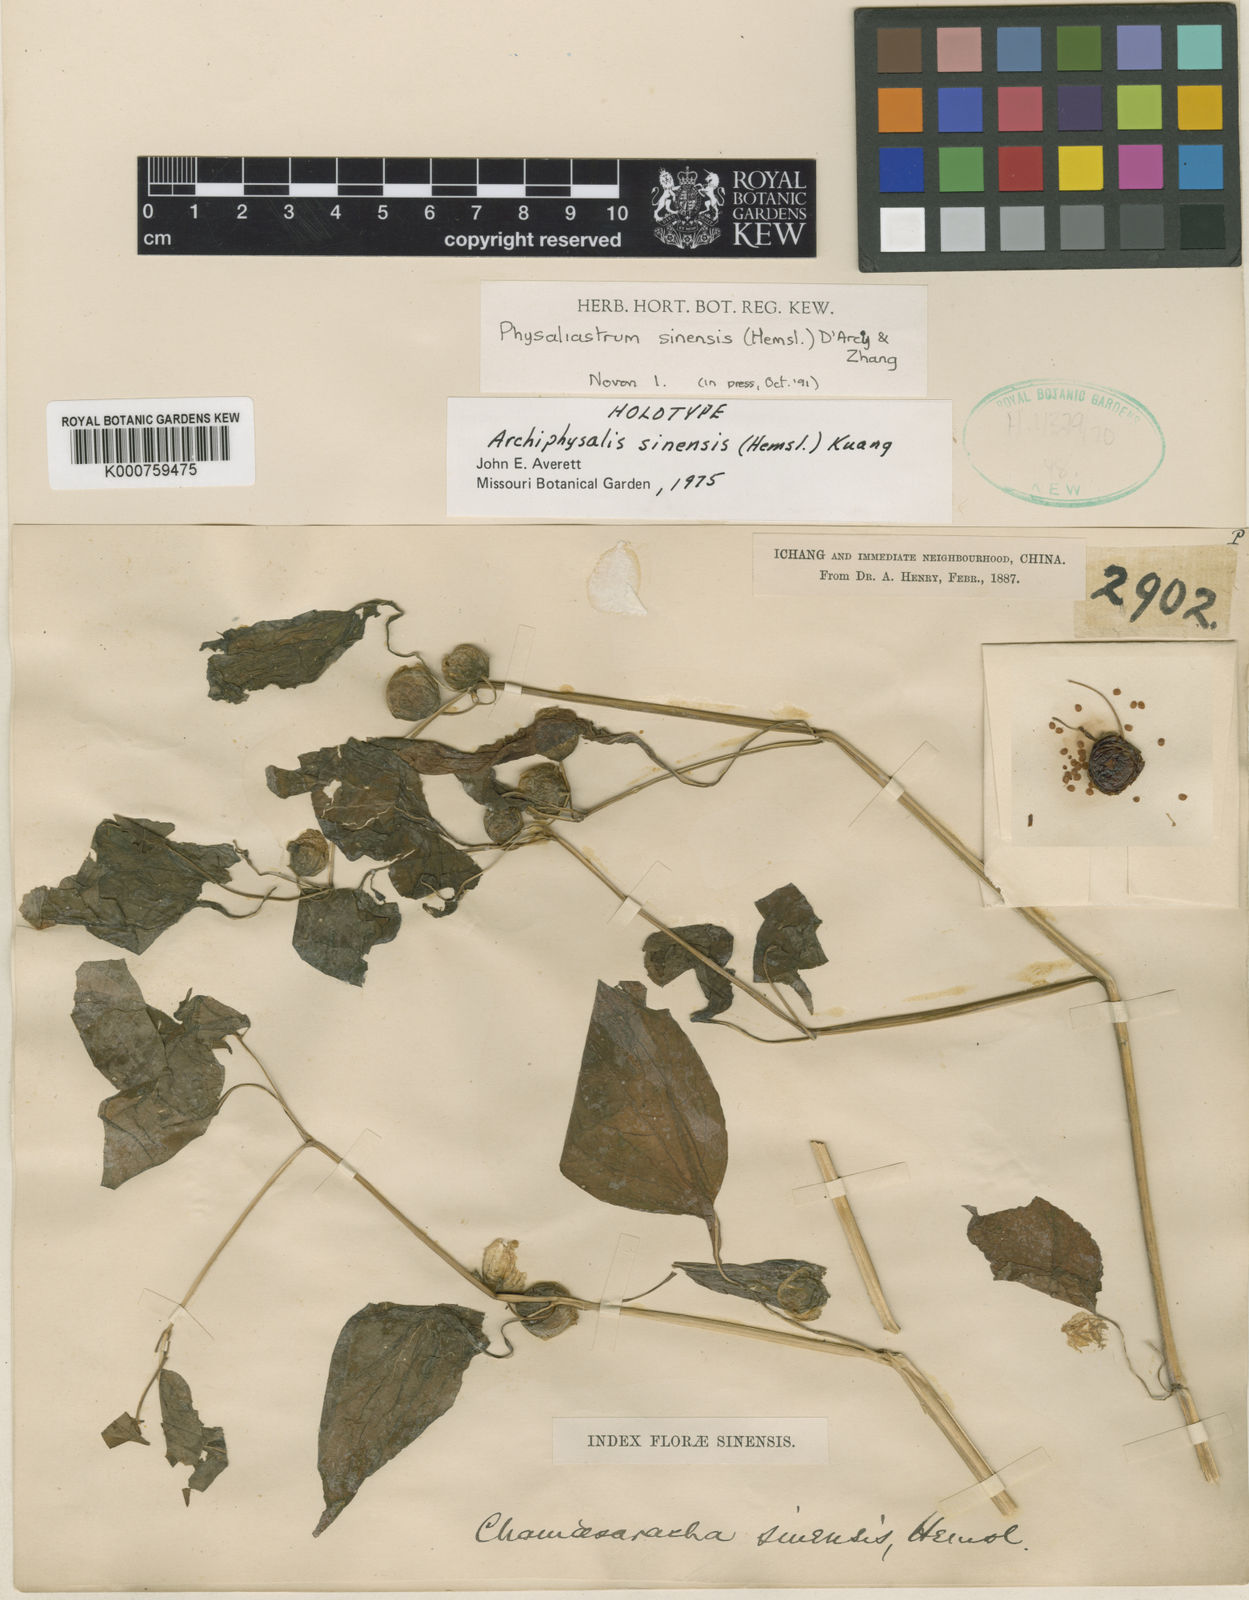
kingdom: Plantae
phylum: Tracheophyta
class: Magnoliopsida
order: Solanales
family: Solanaceae
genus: Leucophysalis
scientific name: Leucophysalis
